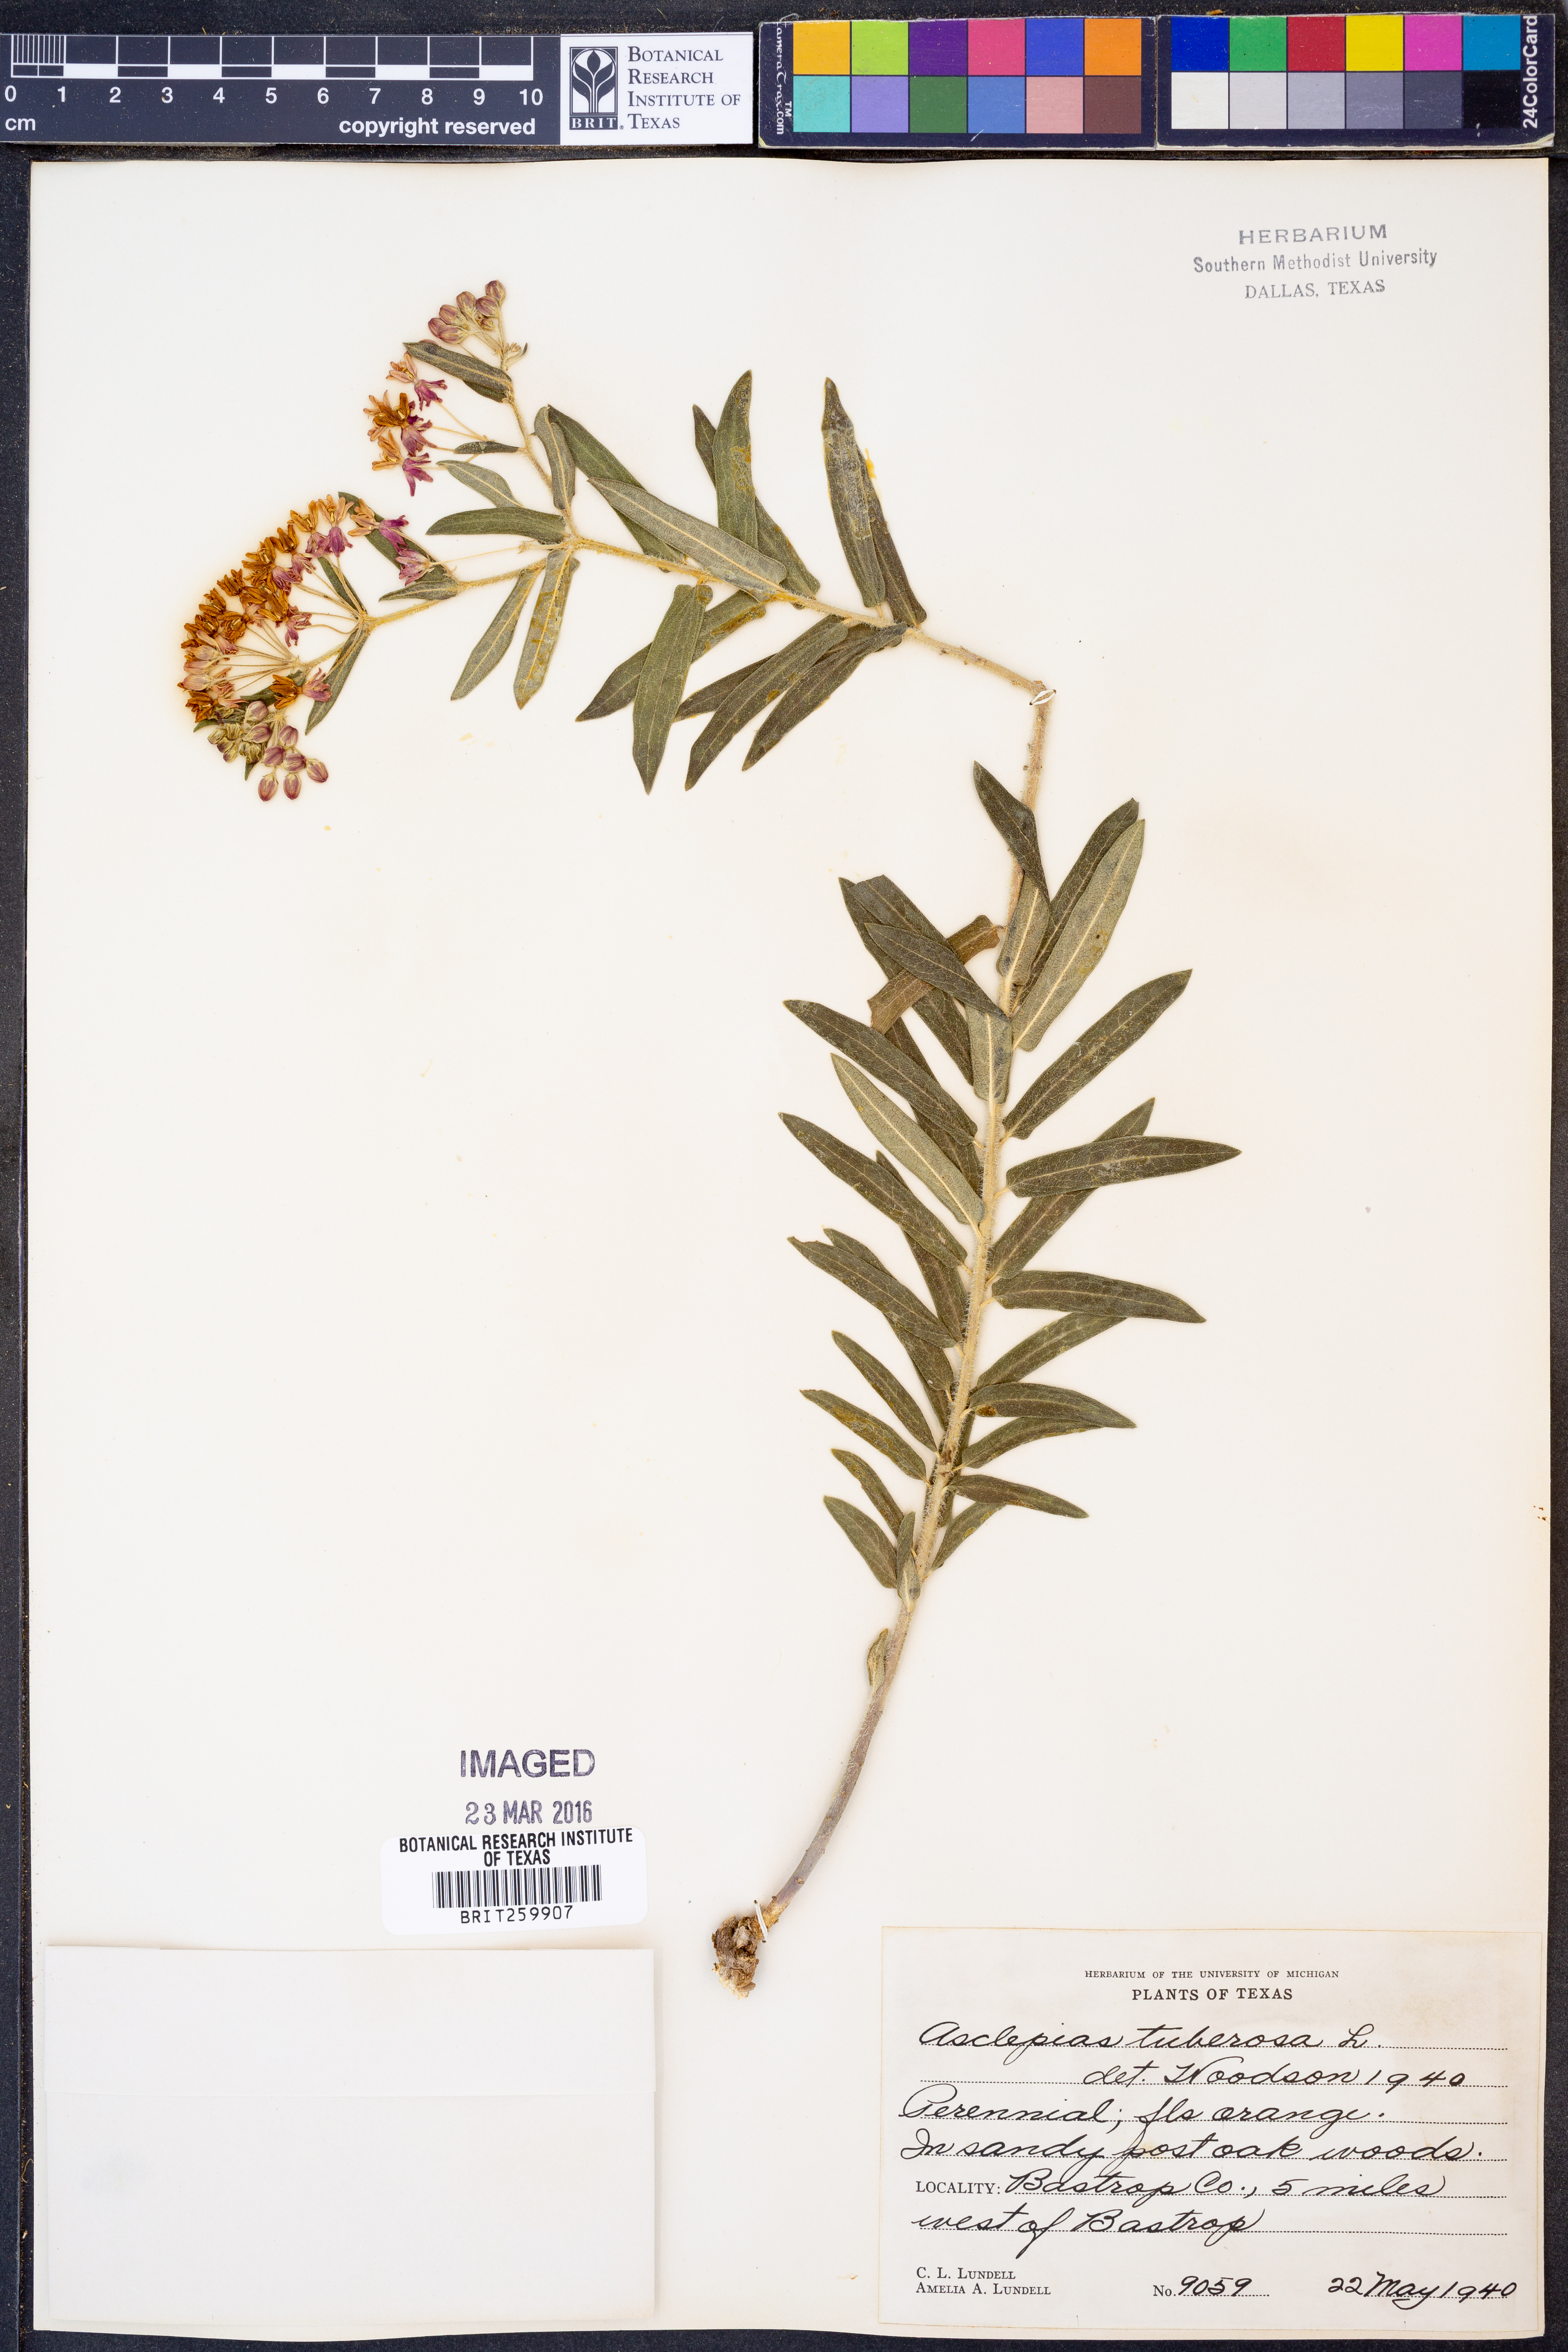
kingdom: Plantae
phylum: Tracheophyta
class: Magnoliopsida
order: Gentianales
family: Apocynaceae
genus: Asclepias
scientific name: Asclepias tuberosa
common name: Butterfly milkweed
